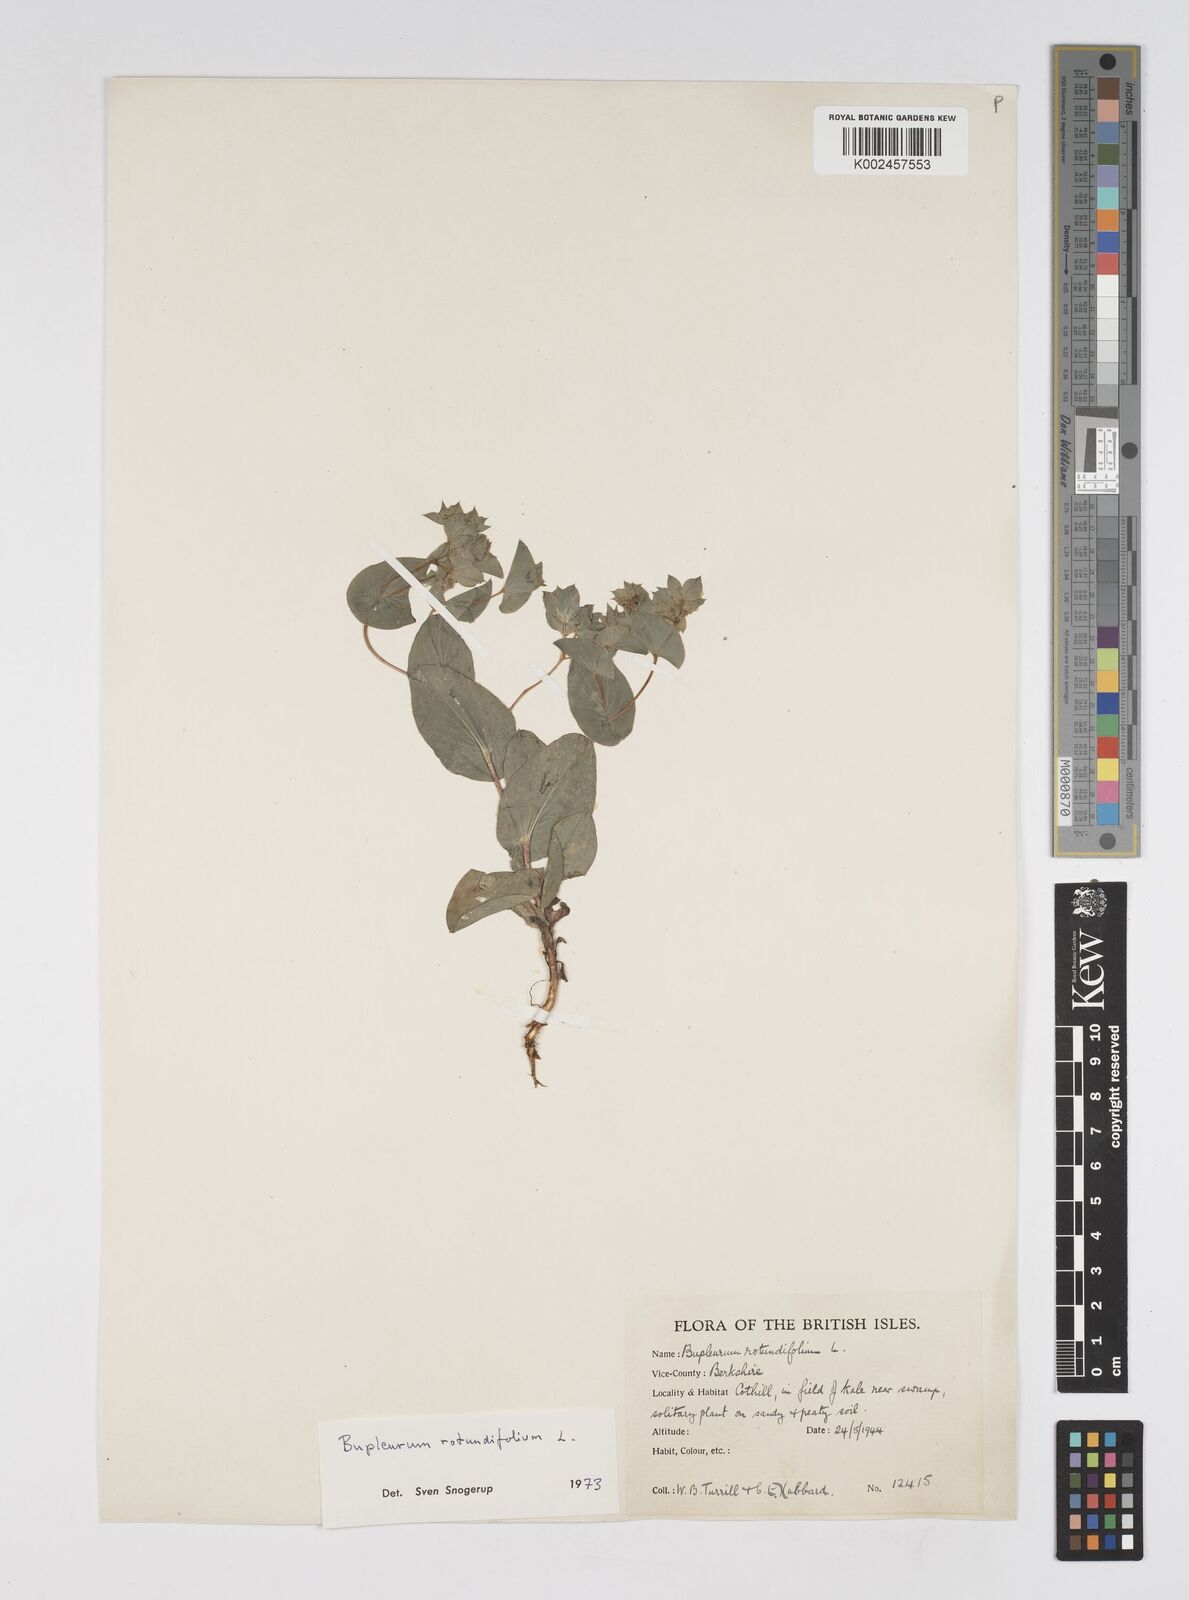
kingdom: Plantae
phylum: Tracheophyta
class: Magnoliopsida
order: Apiales
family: Apiaceae
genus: Bupleurum
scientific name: Bupleurum rotundifolium
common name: Thorow-wax
